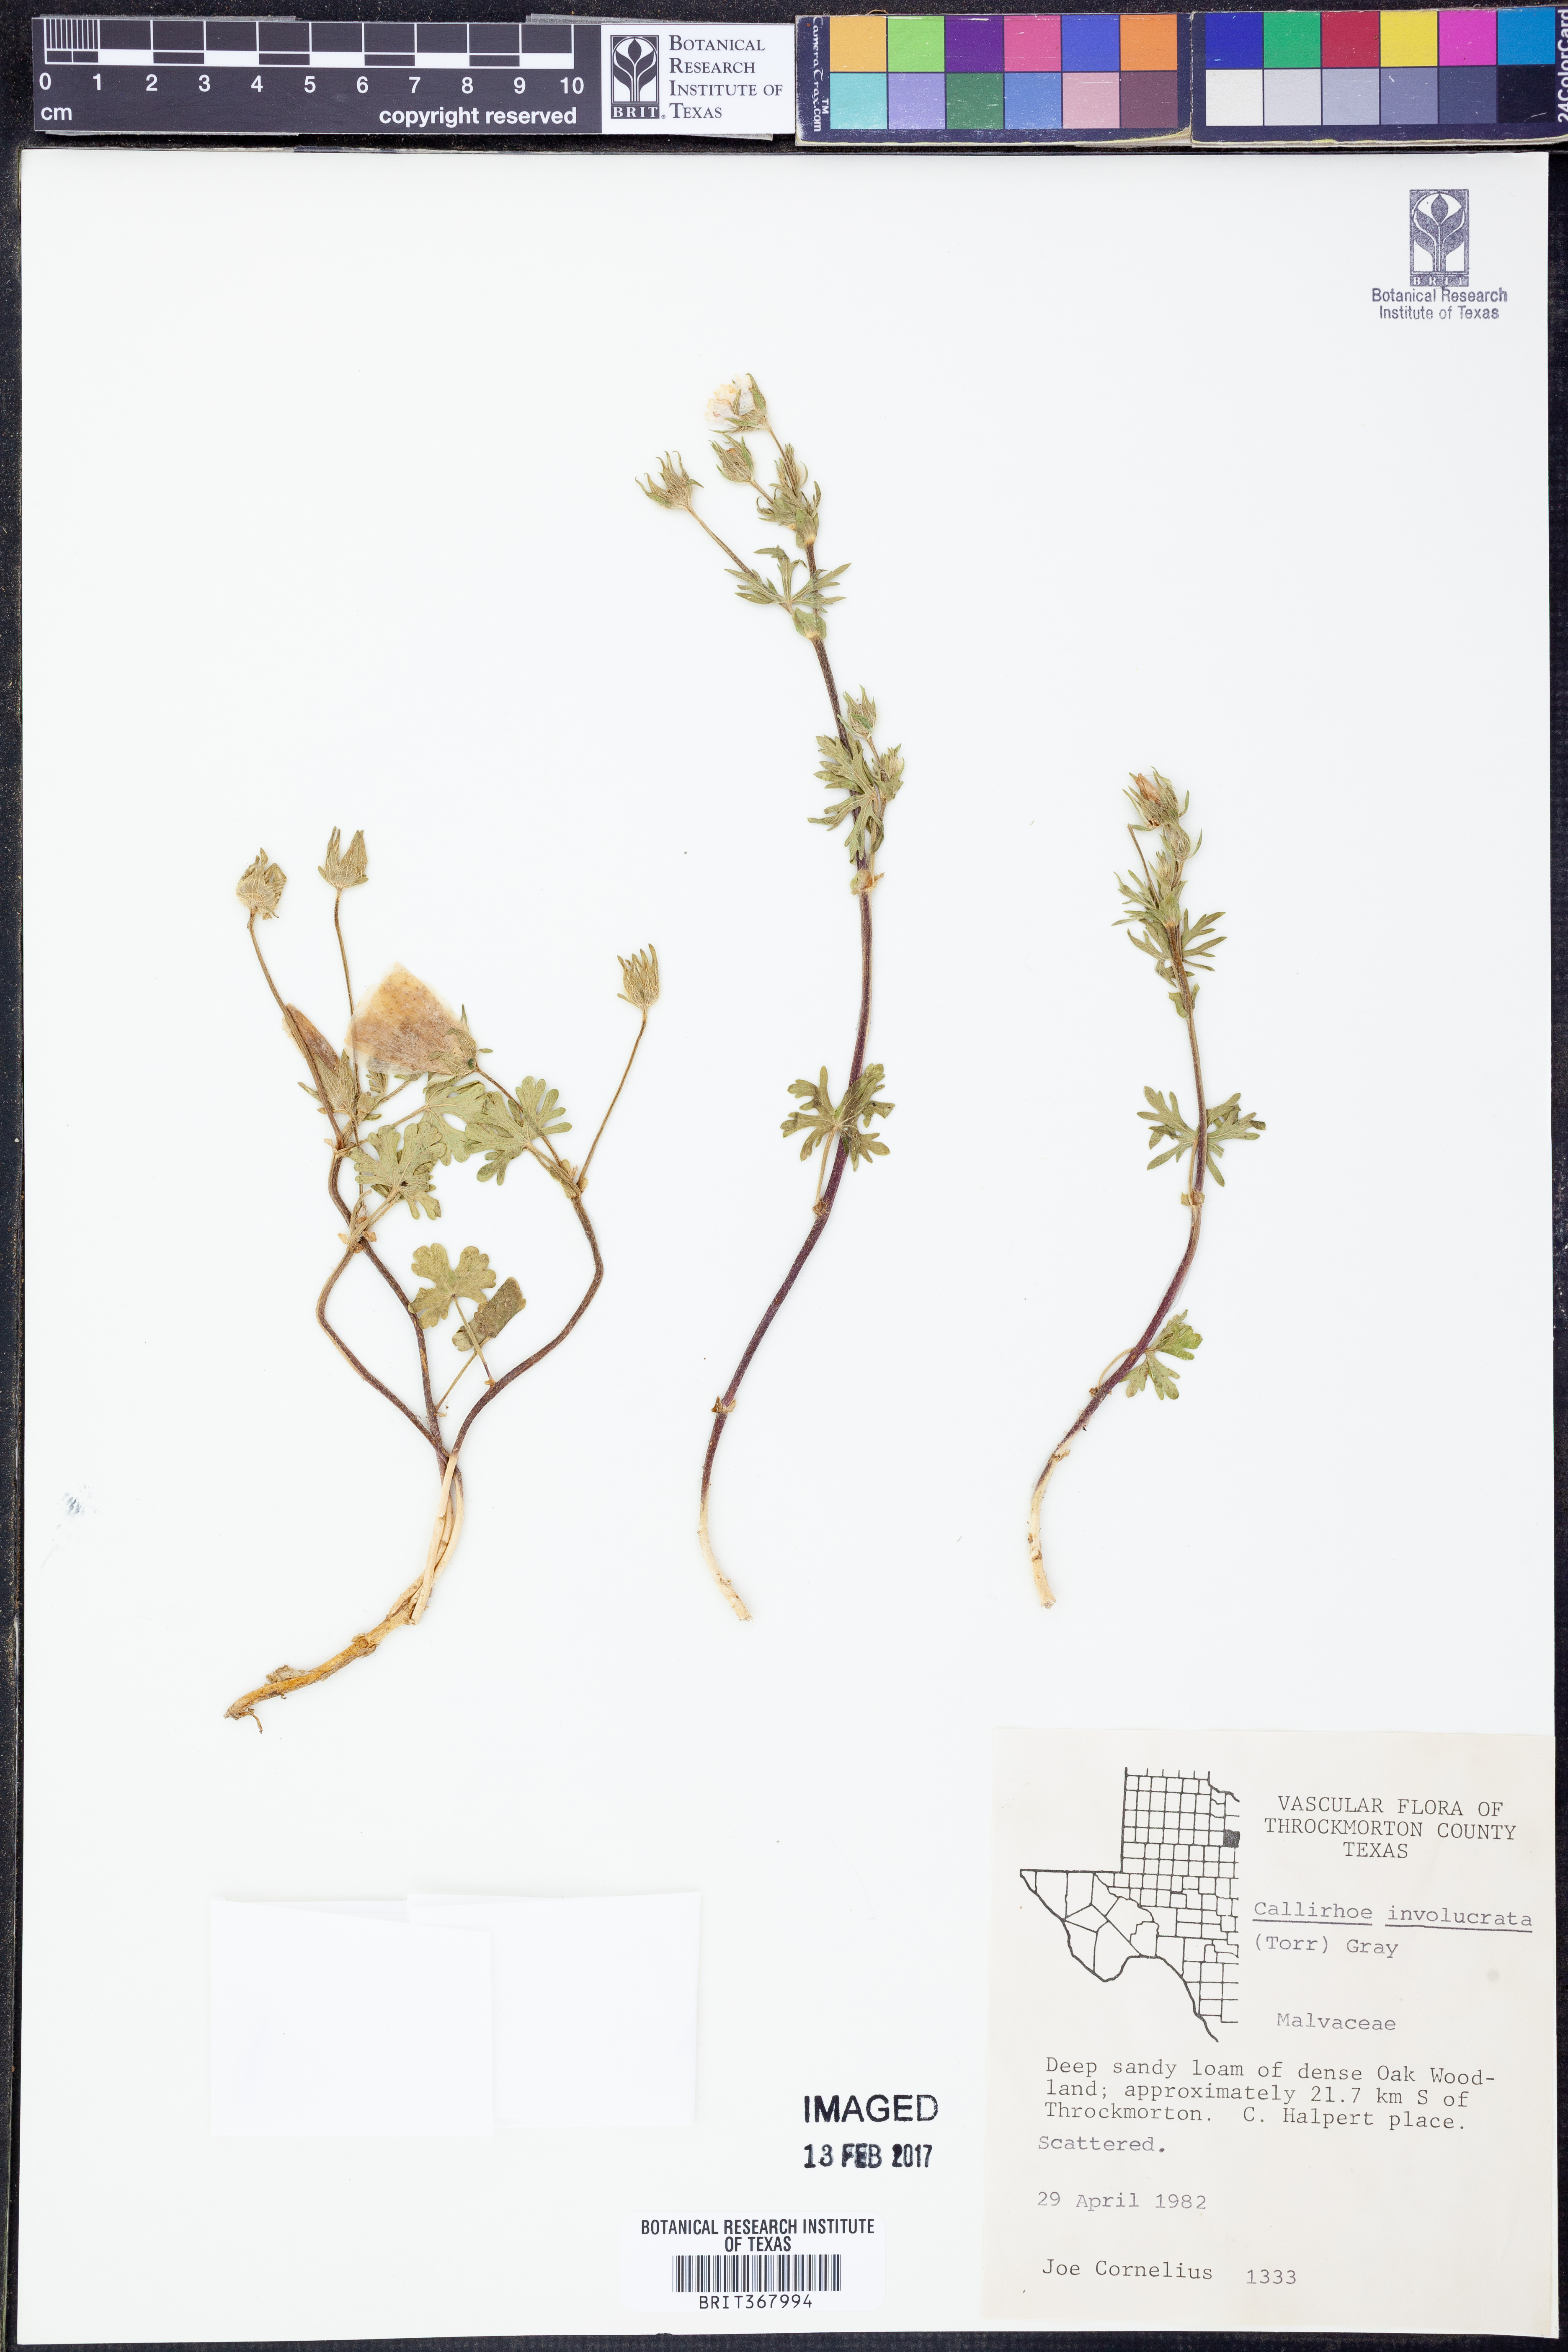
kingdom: Plantae
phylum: Tracheophyta
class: Magnoliopsida
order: Malvales
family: Malvaceae
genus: Callirhoe
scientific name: Callirhoe involucrata
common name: Purple poppy-mallow
